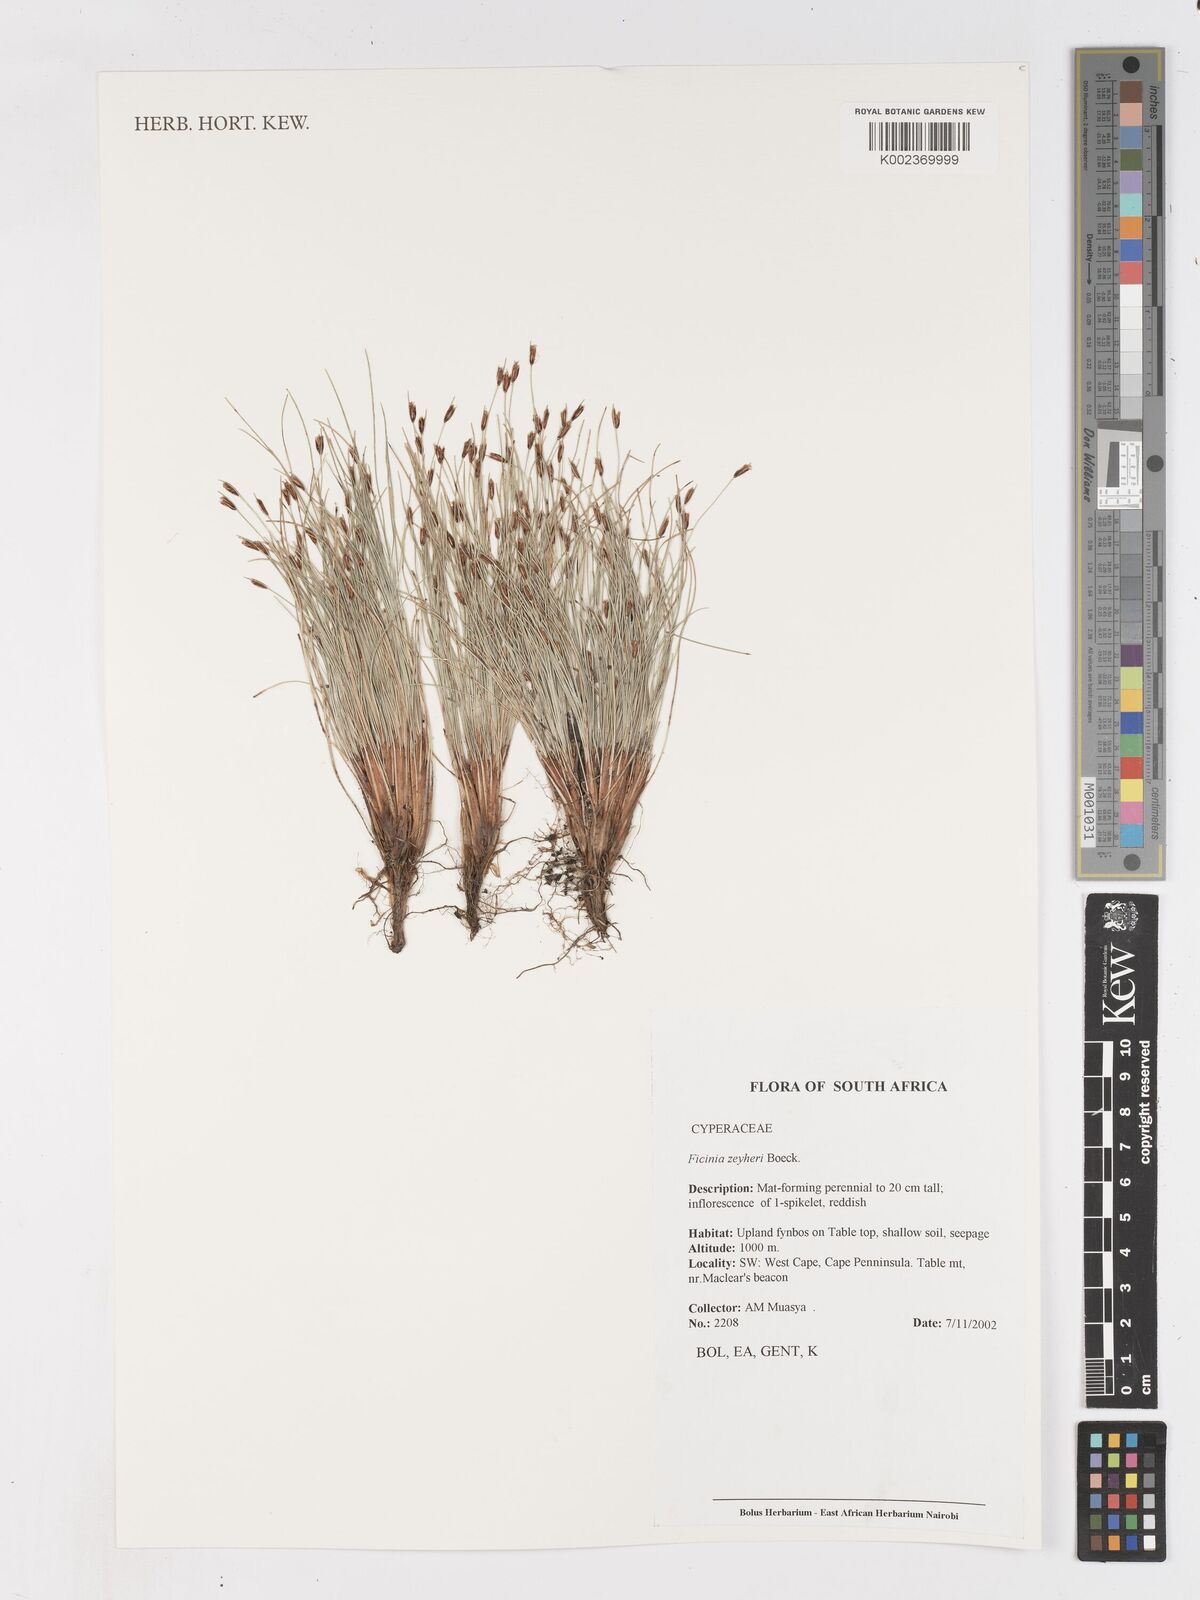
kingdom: Plantae
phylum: Tracheophyta
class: Liliopsida
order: Poales
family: Cyperaceae
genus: Ficinia
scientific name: Ficinia zeyheri
